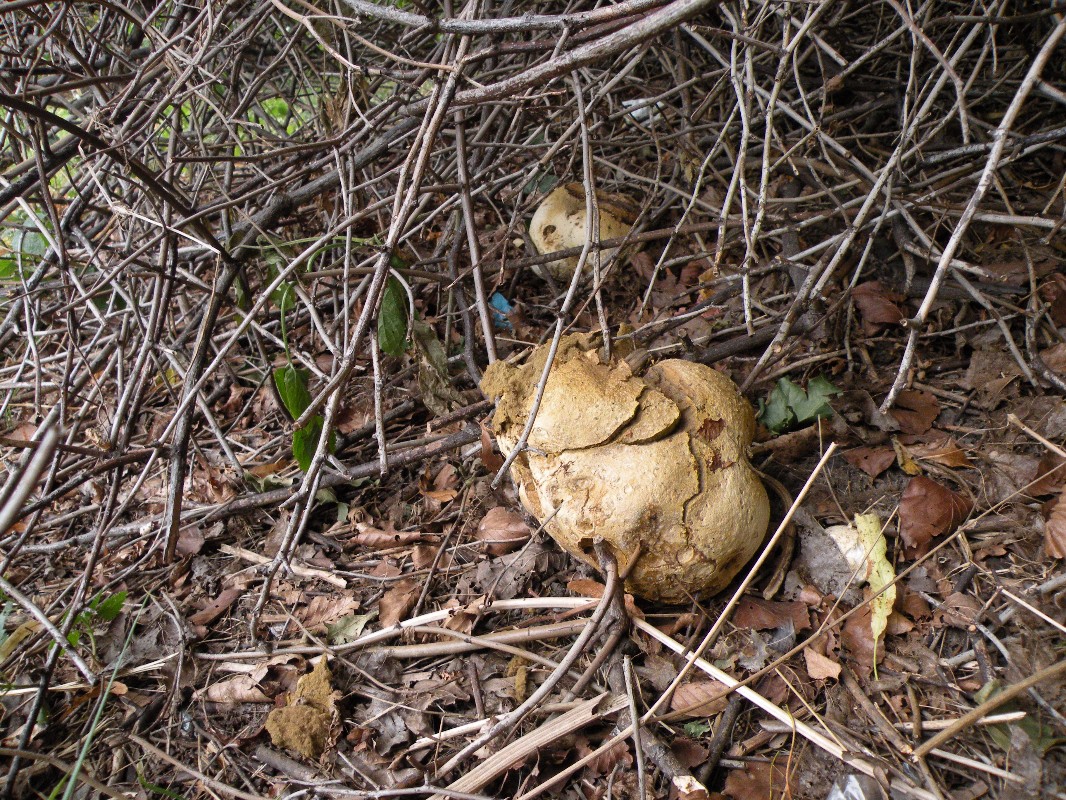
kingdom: Fungi
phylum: Basidiomycota
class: Agaricomycetes
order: Agaricales
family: Lycoperdaceae
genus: Calvatia
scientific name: Calvatia gigantea
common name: kæmpestøvbold
